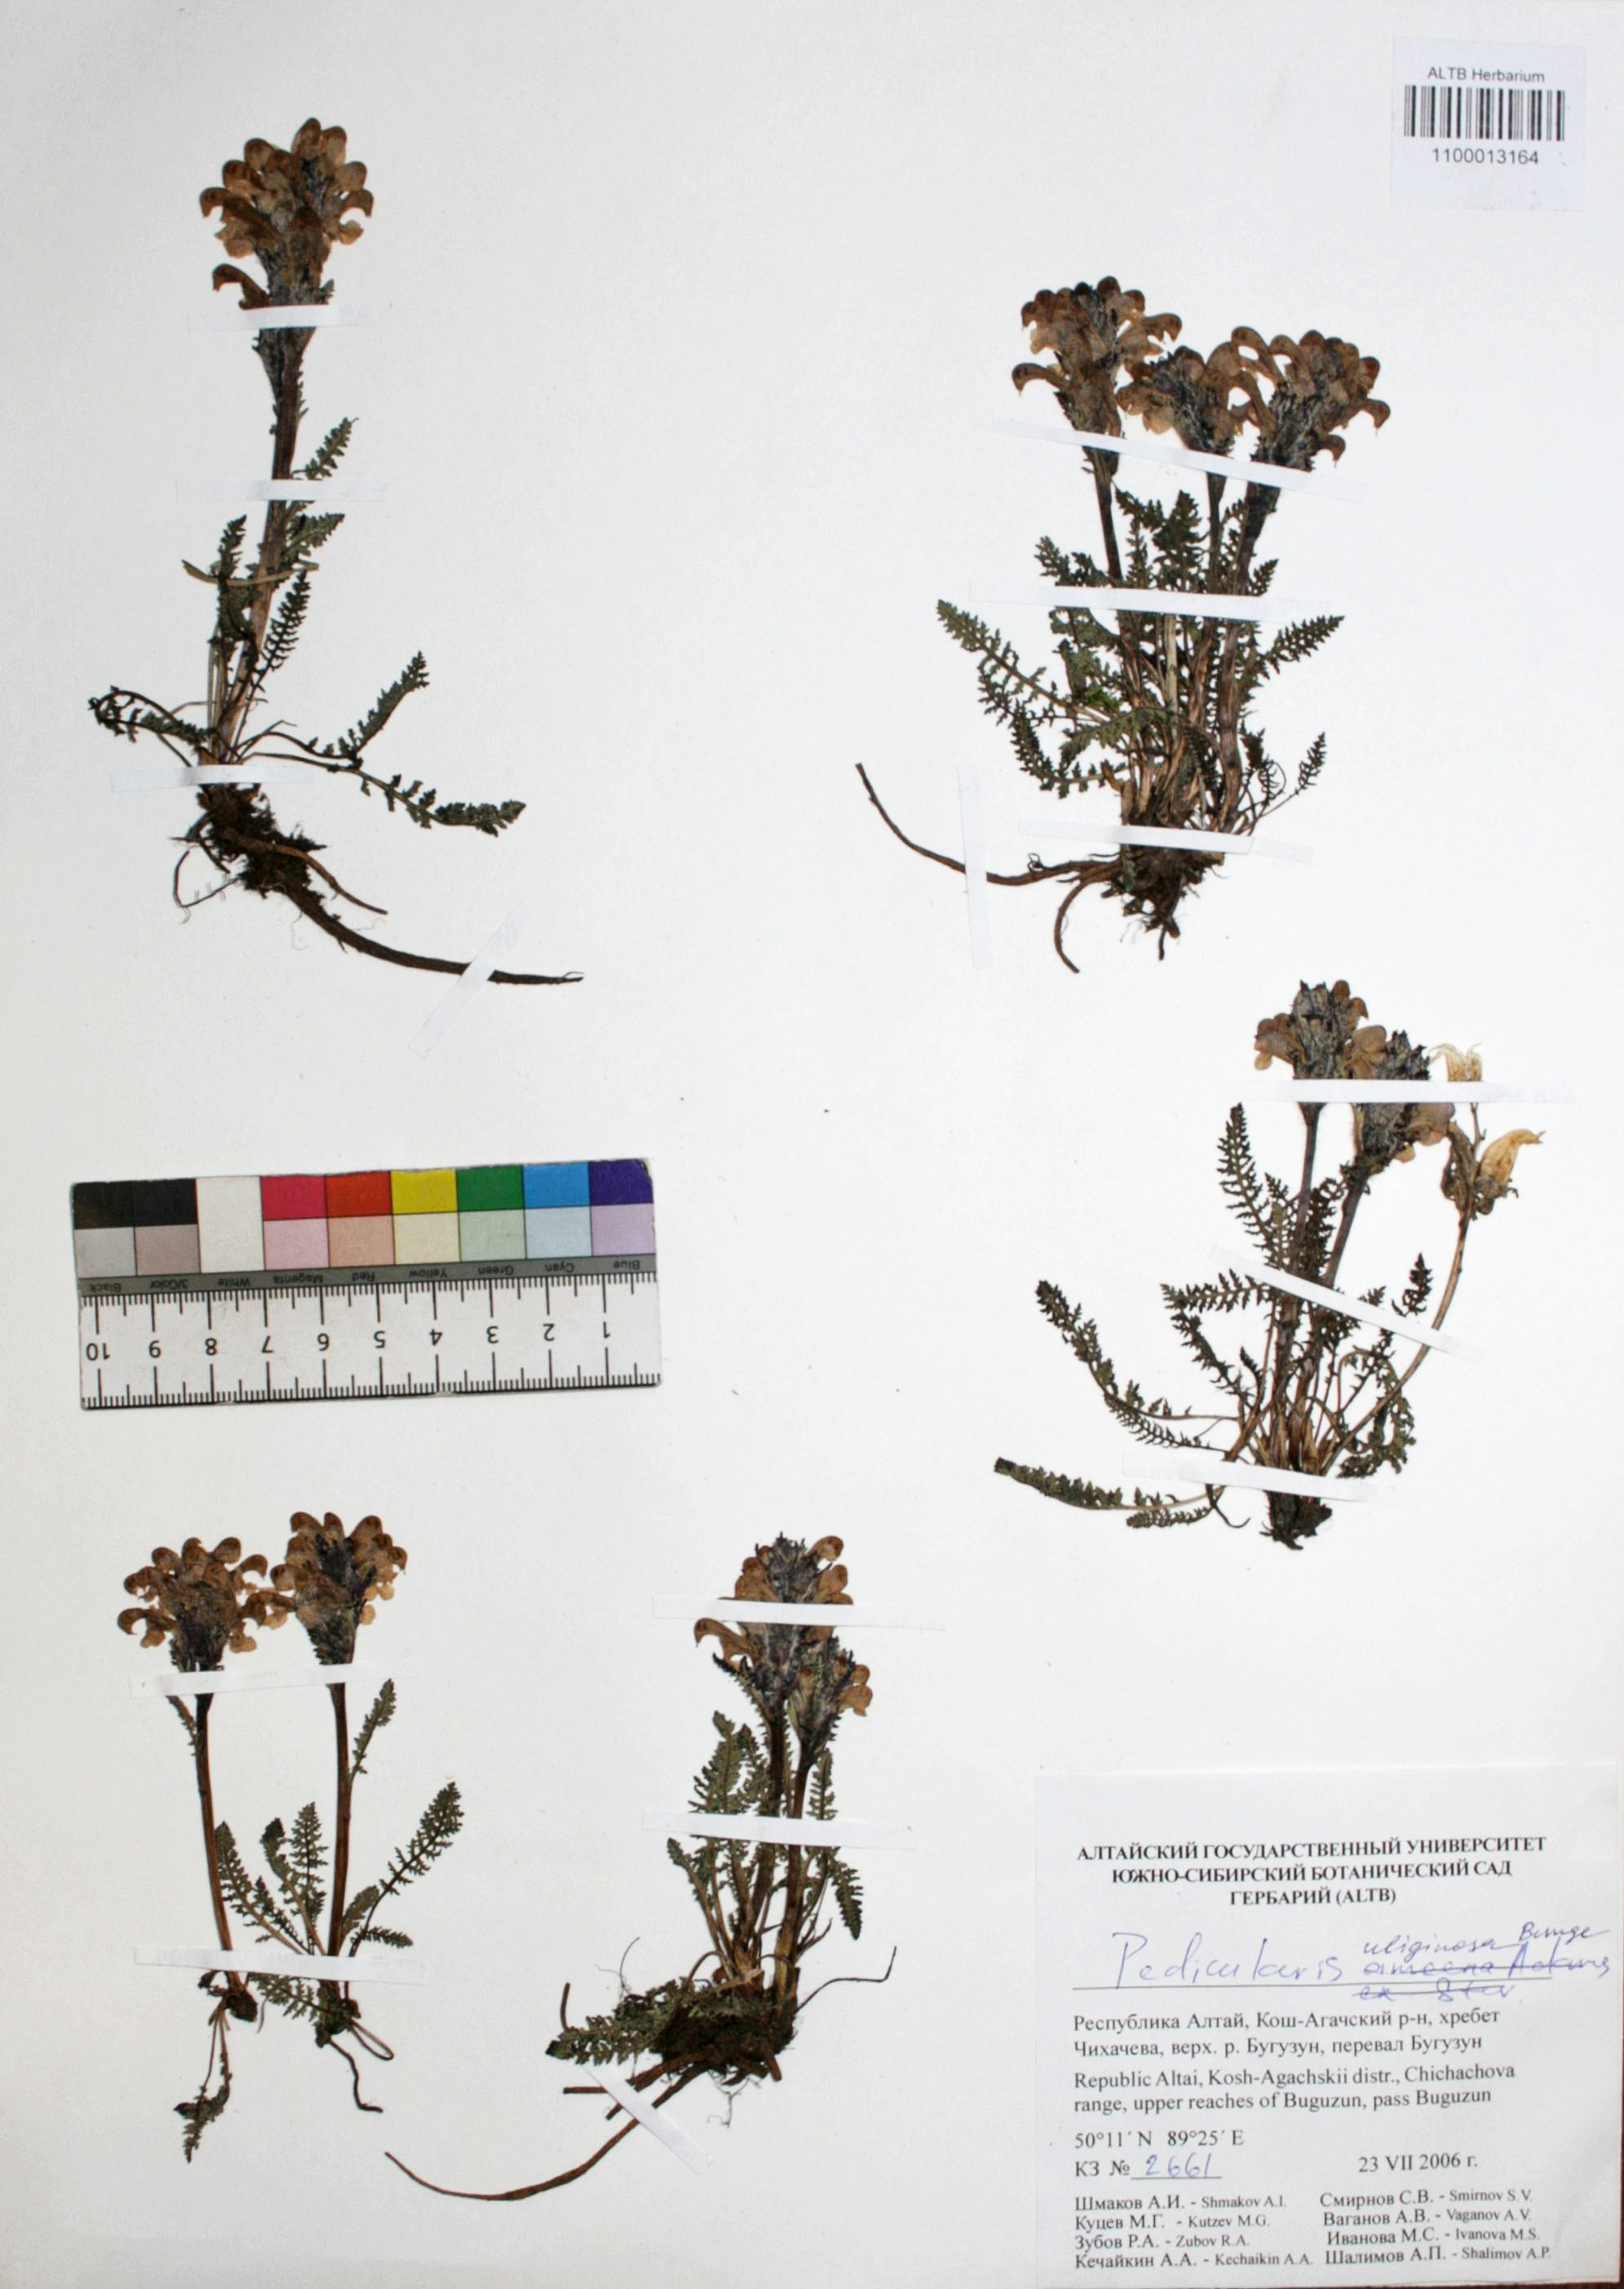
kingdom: Plantae
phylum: Tracheophyta
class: Magnoliopsida
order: Lamiales
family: Orobanchaceae
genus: Pedicularis
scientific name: Pedicularis uliginosa
